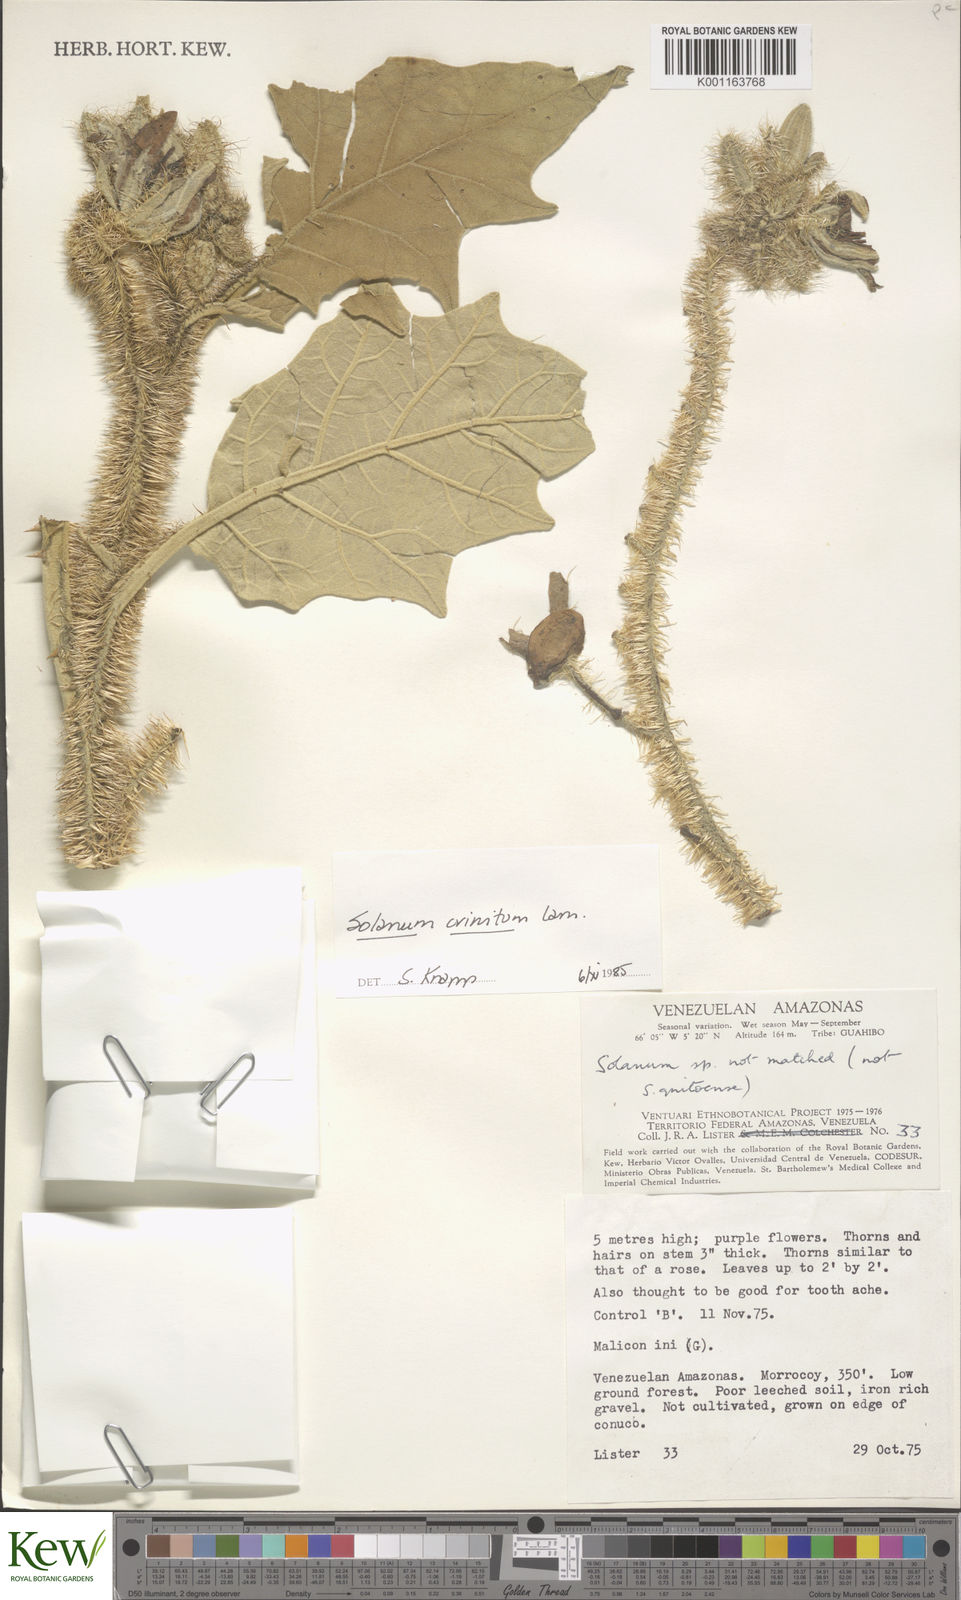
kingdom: Plantae
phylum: Tracheophyta
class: Magnoliopsida
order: Solanales
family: Solanaceae
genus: Solanum
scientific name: Solanum crinitum
